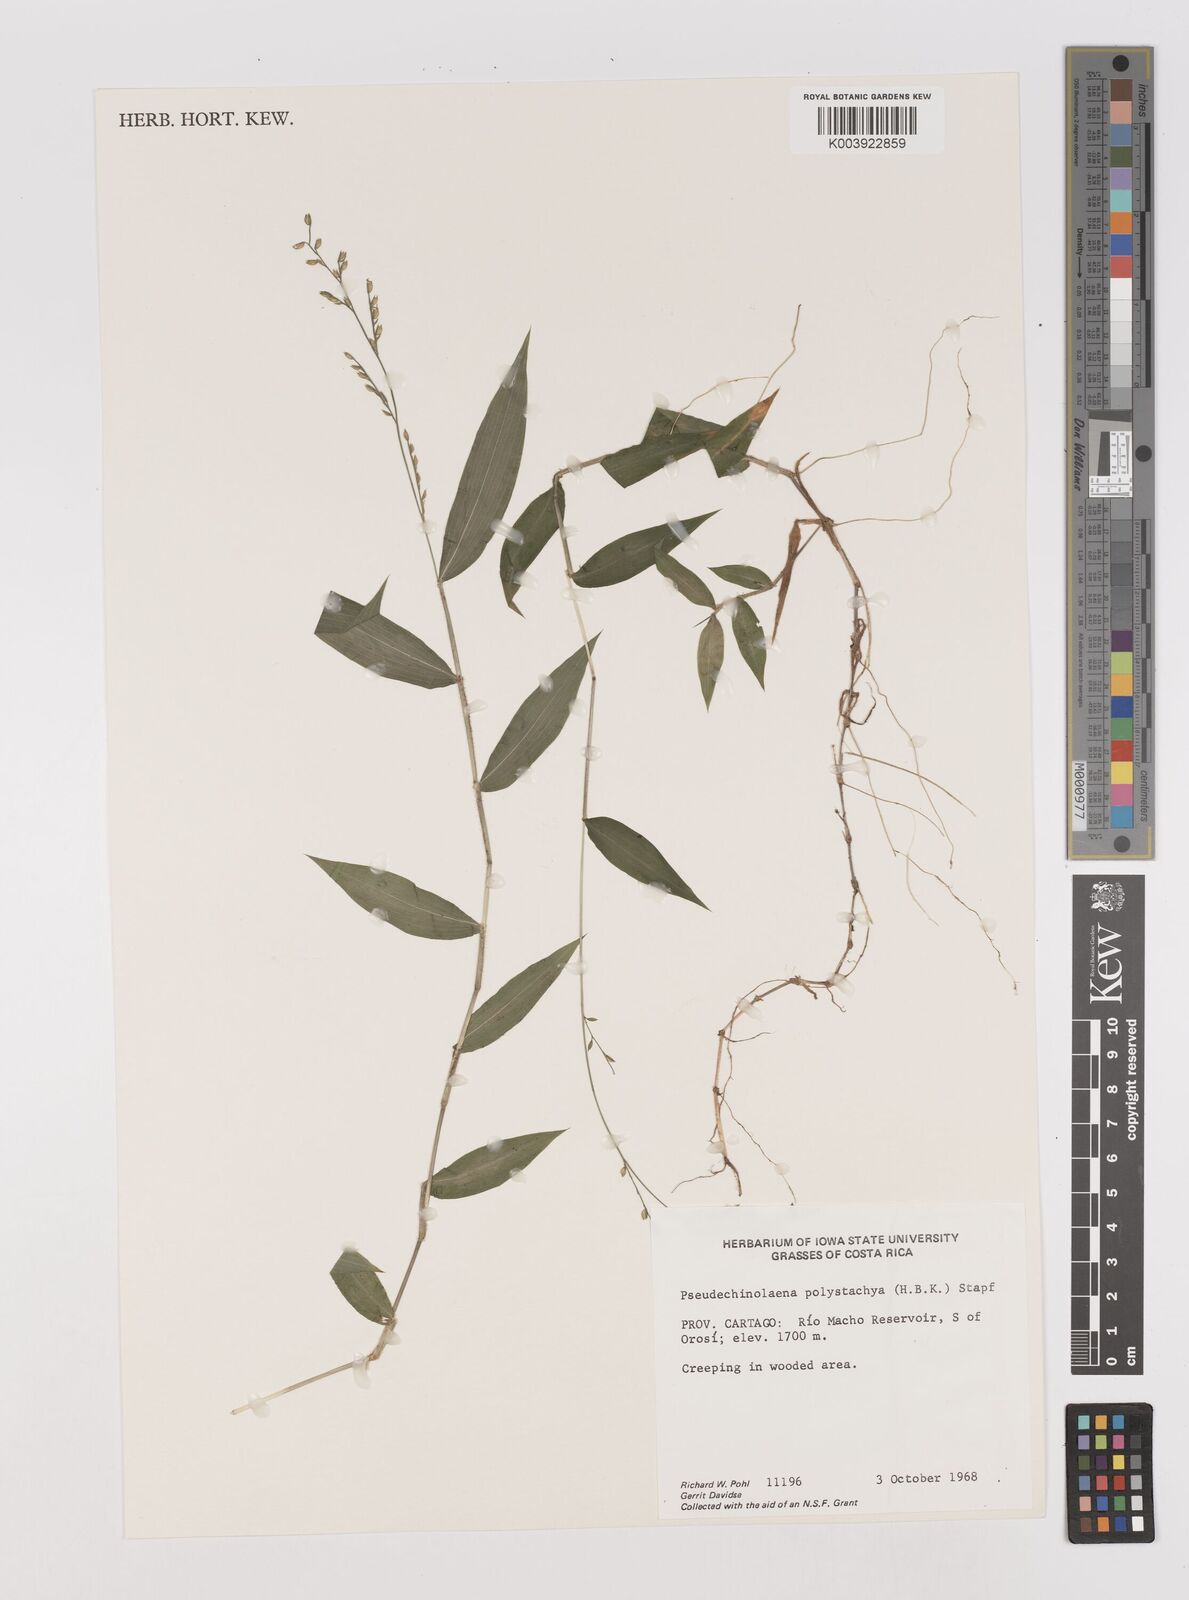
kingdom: Plantae
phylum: Tracheophyta
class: Liliopsida
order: Poales
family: Poaceae
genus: Pseudechinolaena
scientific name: Pseudechinolaena polystachya
